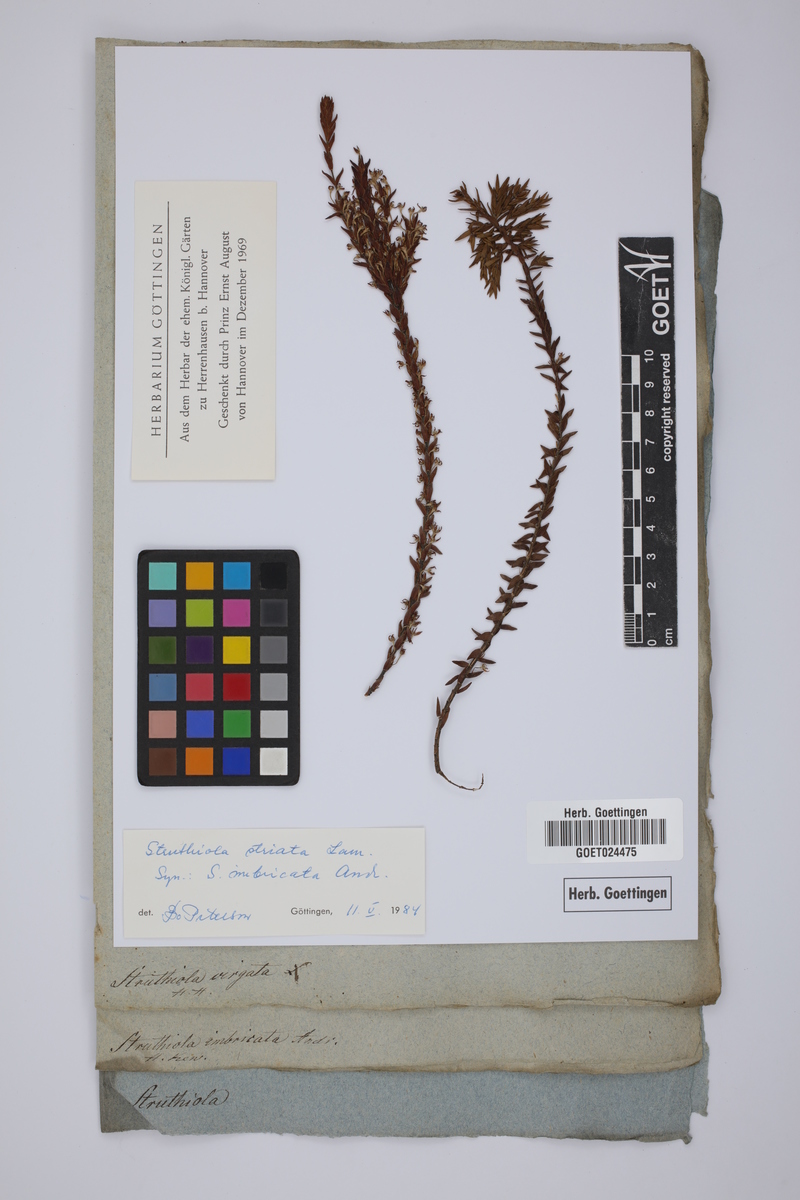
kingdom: Plantae
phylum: Tracheophyta
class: Magnoliopsida
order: Malvales
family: Thymelaeaceae
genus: Struthiola
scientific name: Struthiola striata
